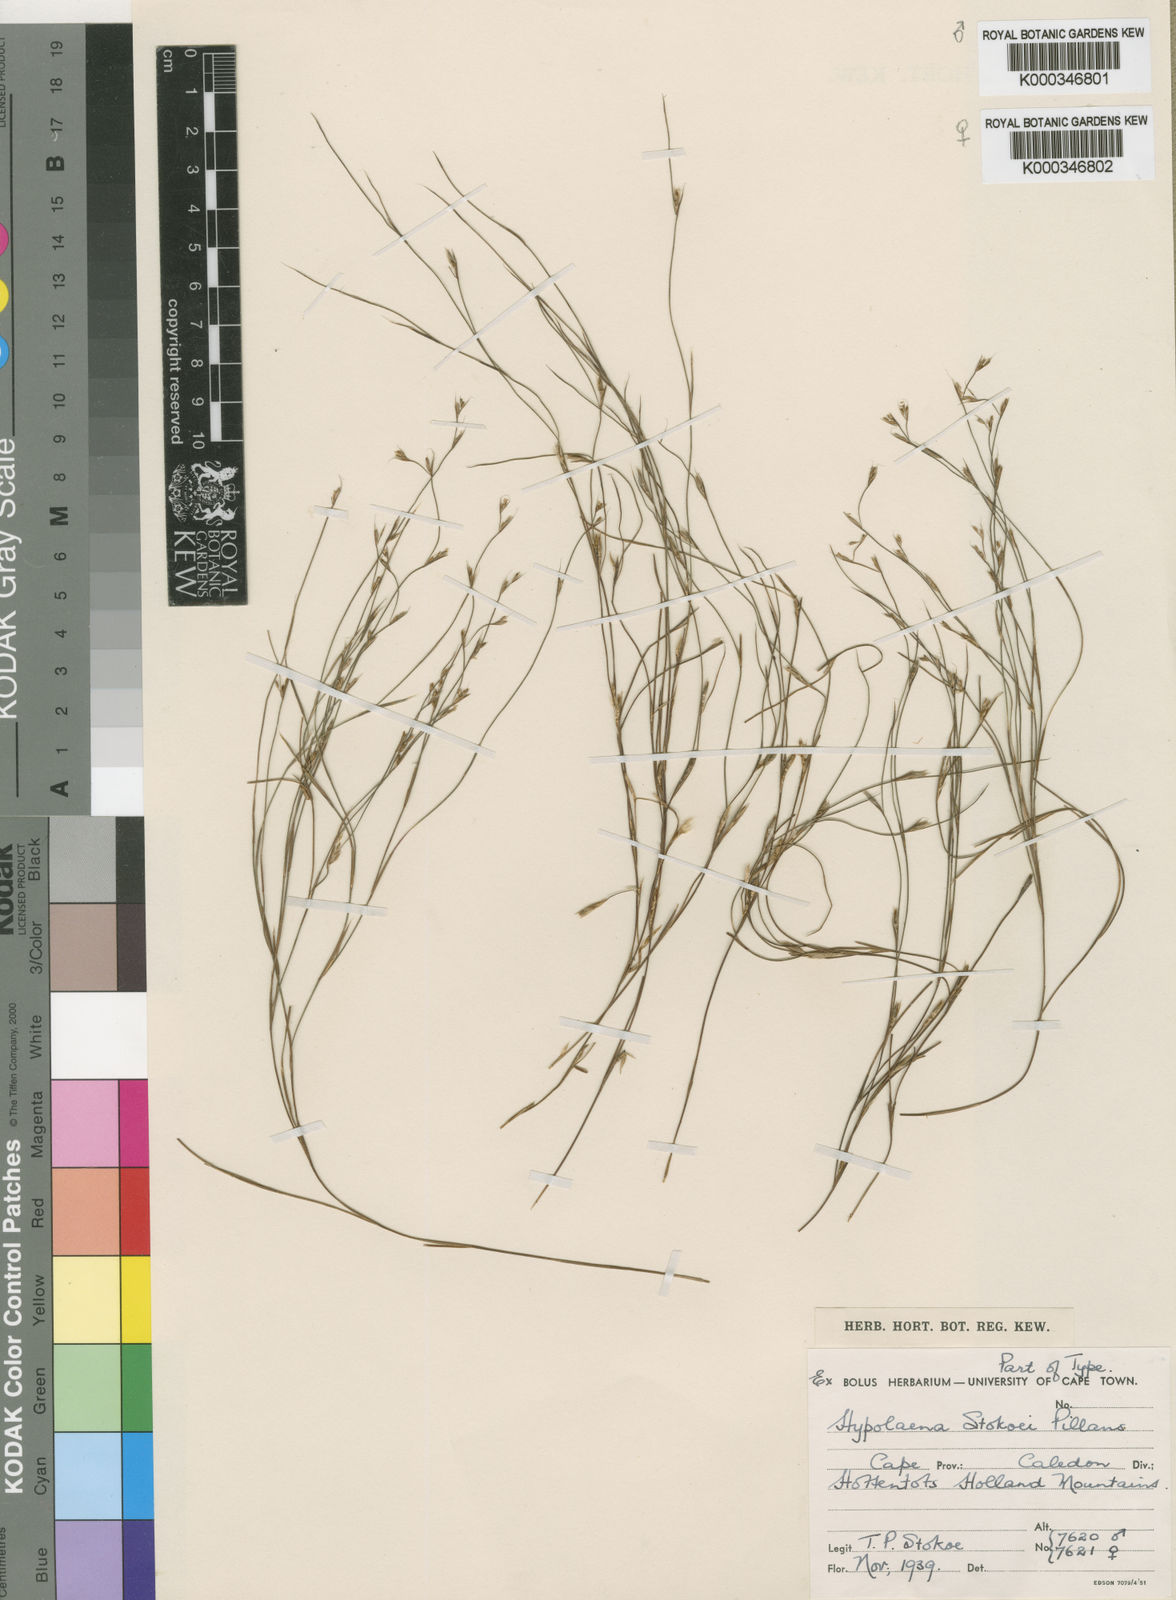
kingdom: Plantae
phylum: Tracheophyta
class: Liliopsida
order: Poales
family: Restionaceae
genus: Anthochortus
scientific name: Anthochortus laxiflorus
